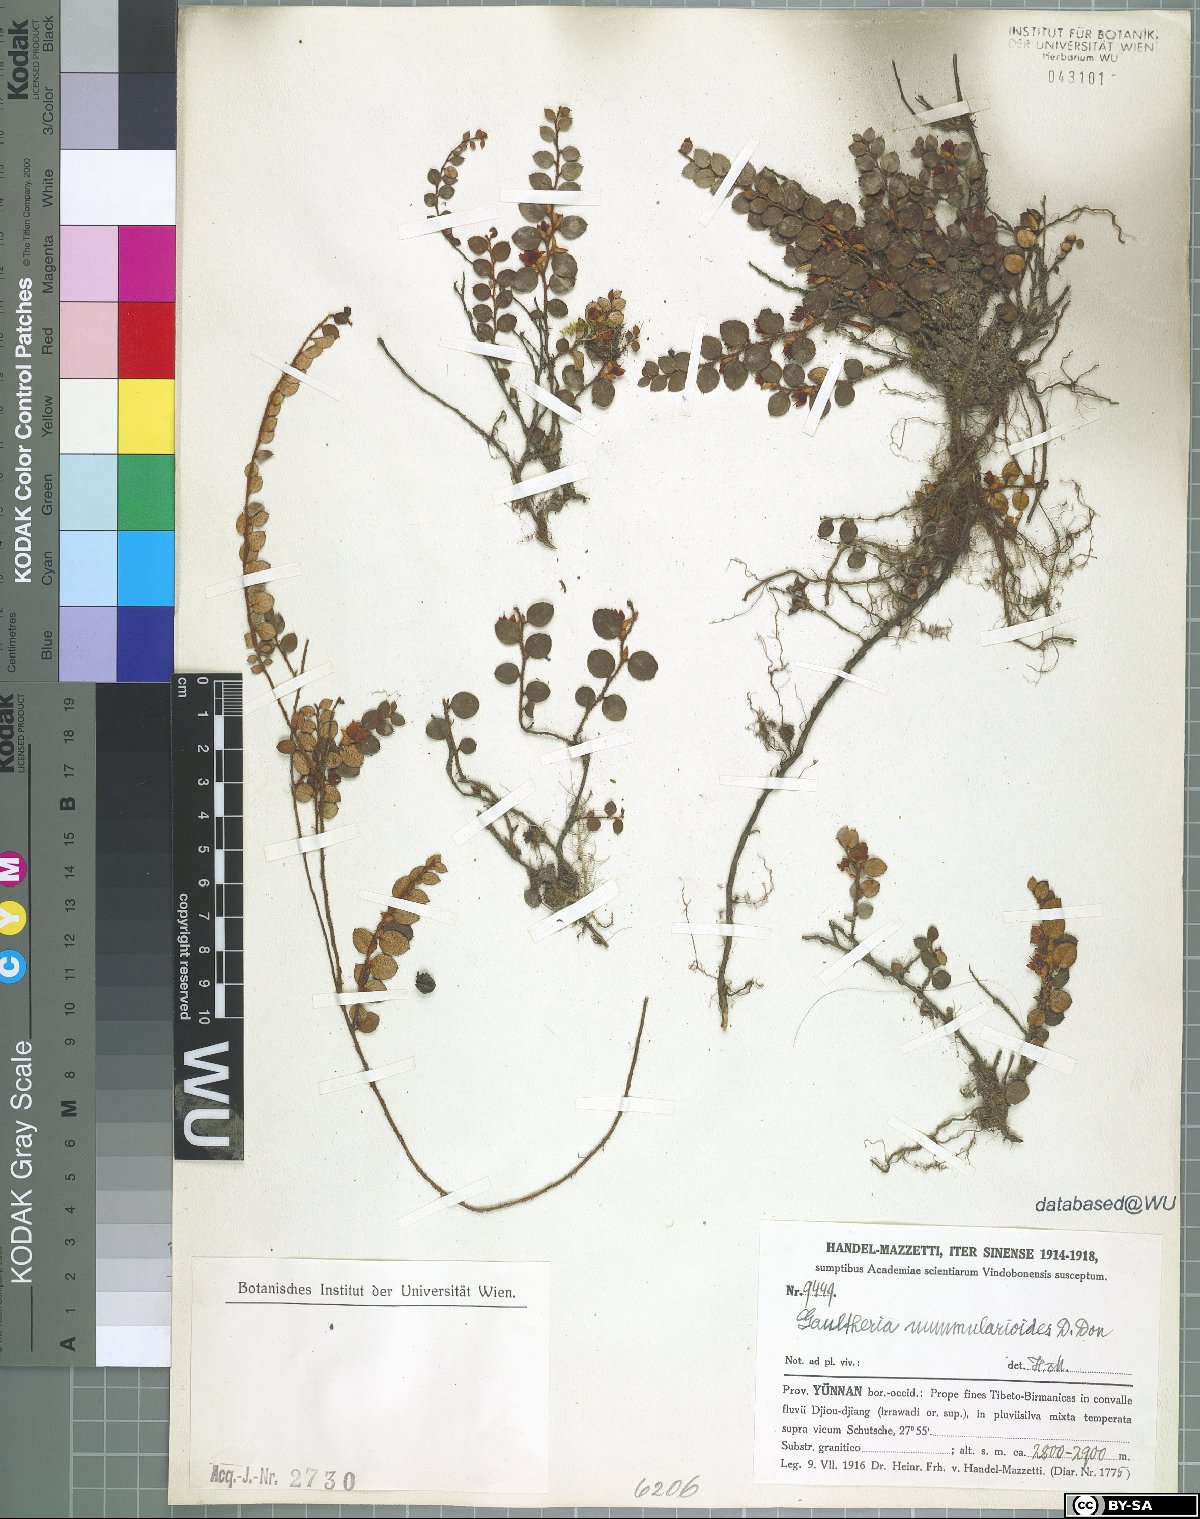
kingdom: Plantae
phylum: Tracheophyta
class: Magnoliopsida
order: Ericales
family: Ericaceae
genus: Gaultheria
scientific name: Gaultheria nummularioides
